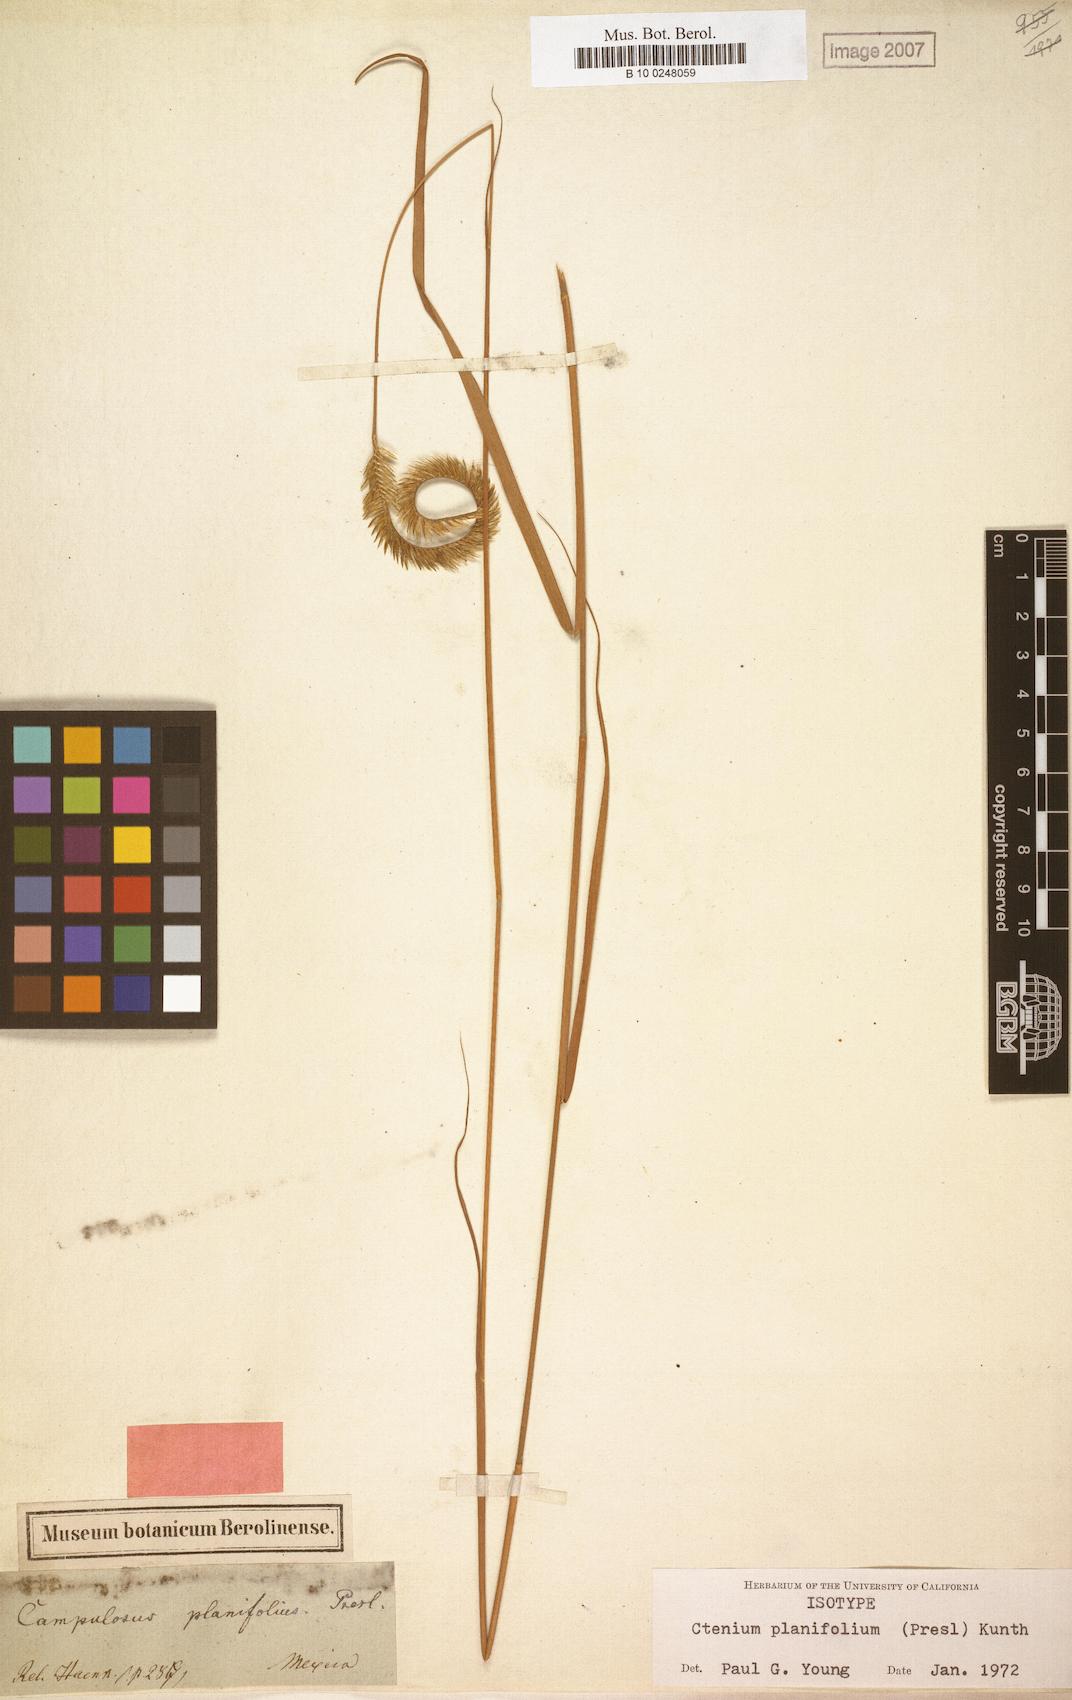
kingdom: Plantae
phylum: Tracheophyta
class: Liliopsida
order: Poales
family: Poaceae
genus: Ctenium
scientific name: Ctenium planifolium
